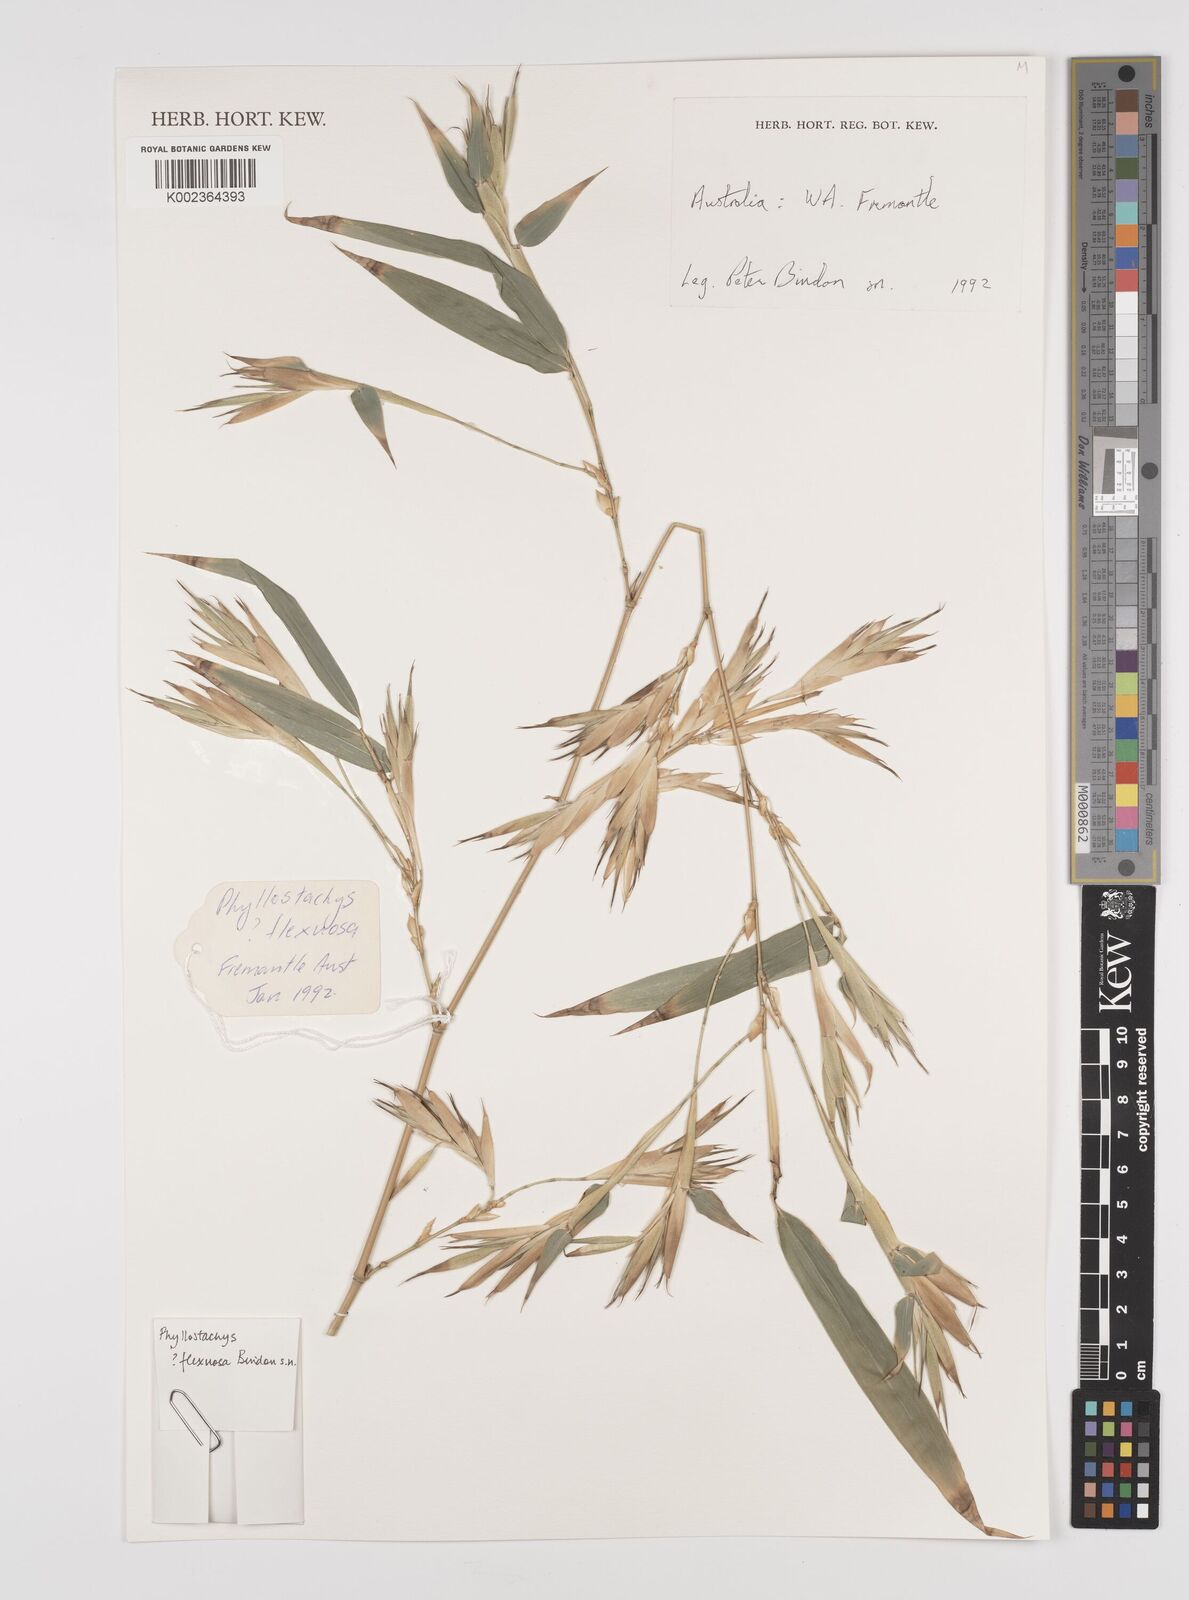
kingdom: Plantae
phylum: Tracheophyta
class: Liliopsida
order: Poales
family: Poaceae
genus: Phyllostachys
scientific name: Phyllostachys flexuosa
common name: Drooping timber bamboo
